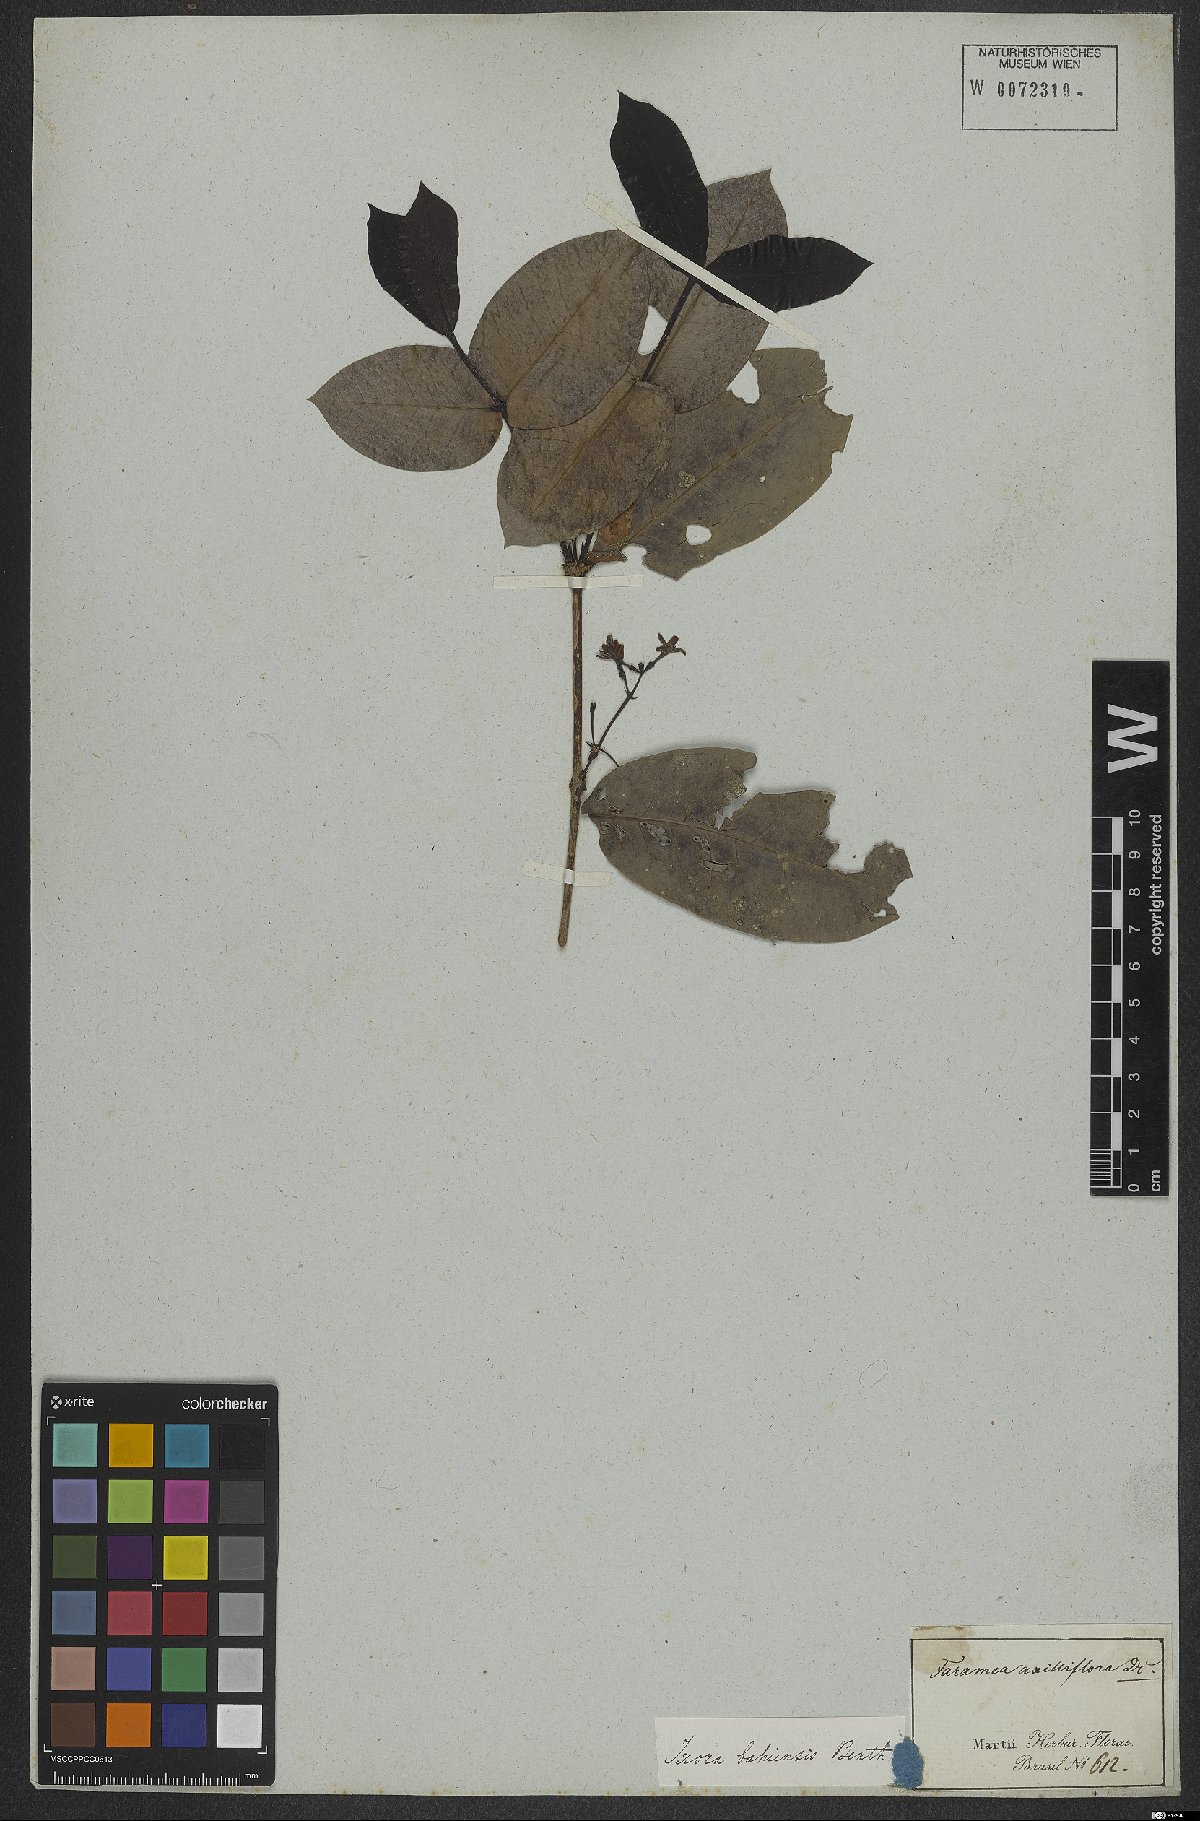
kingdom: Plantae
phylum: Tracheophyta
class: Magnoliopsida
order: Gentianales
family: Rubiaceae
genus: Ixora
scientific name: Ixora bahiensis
